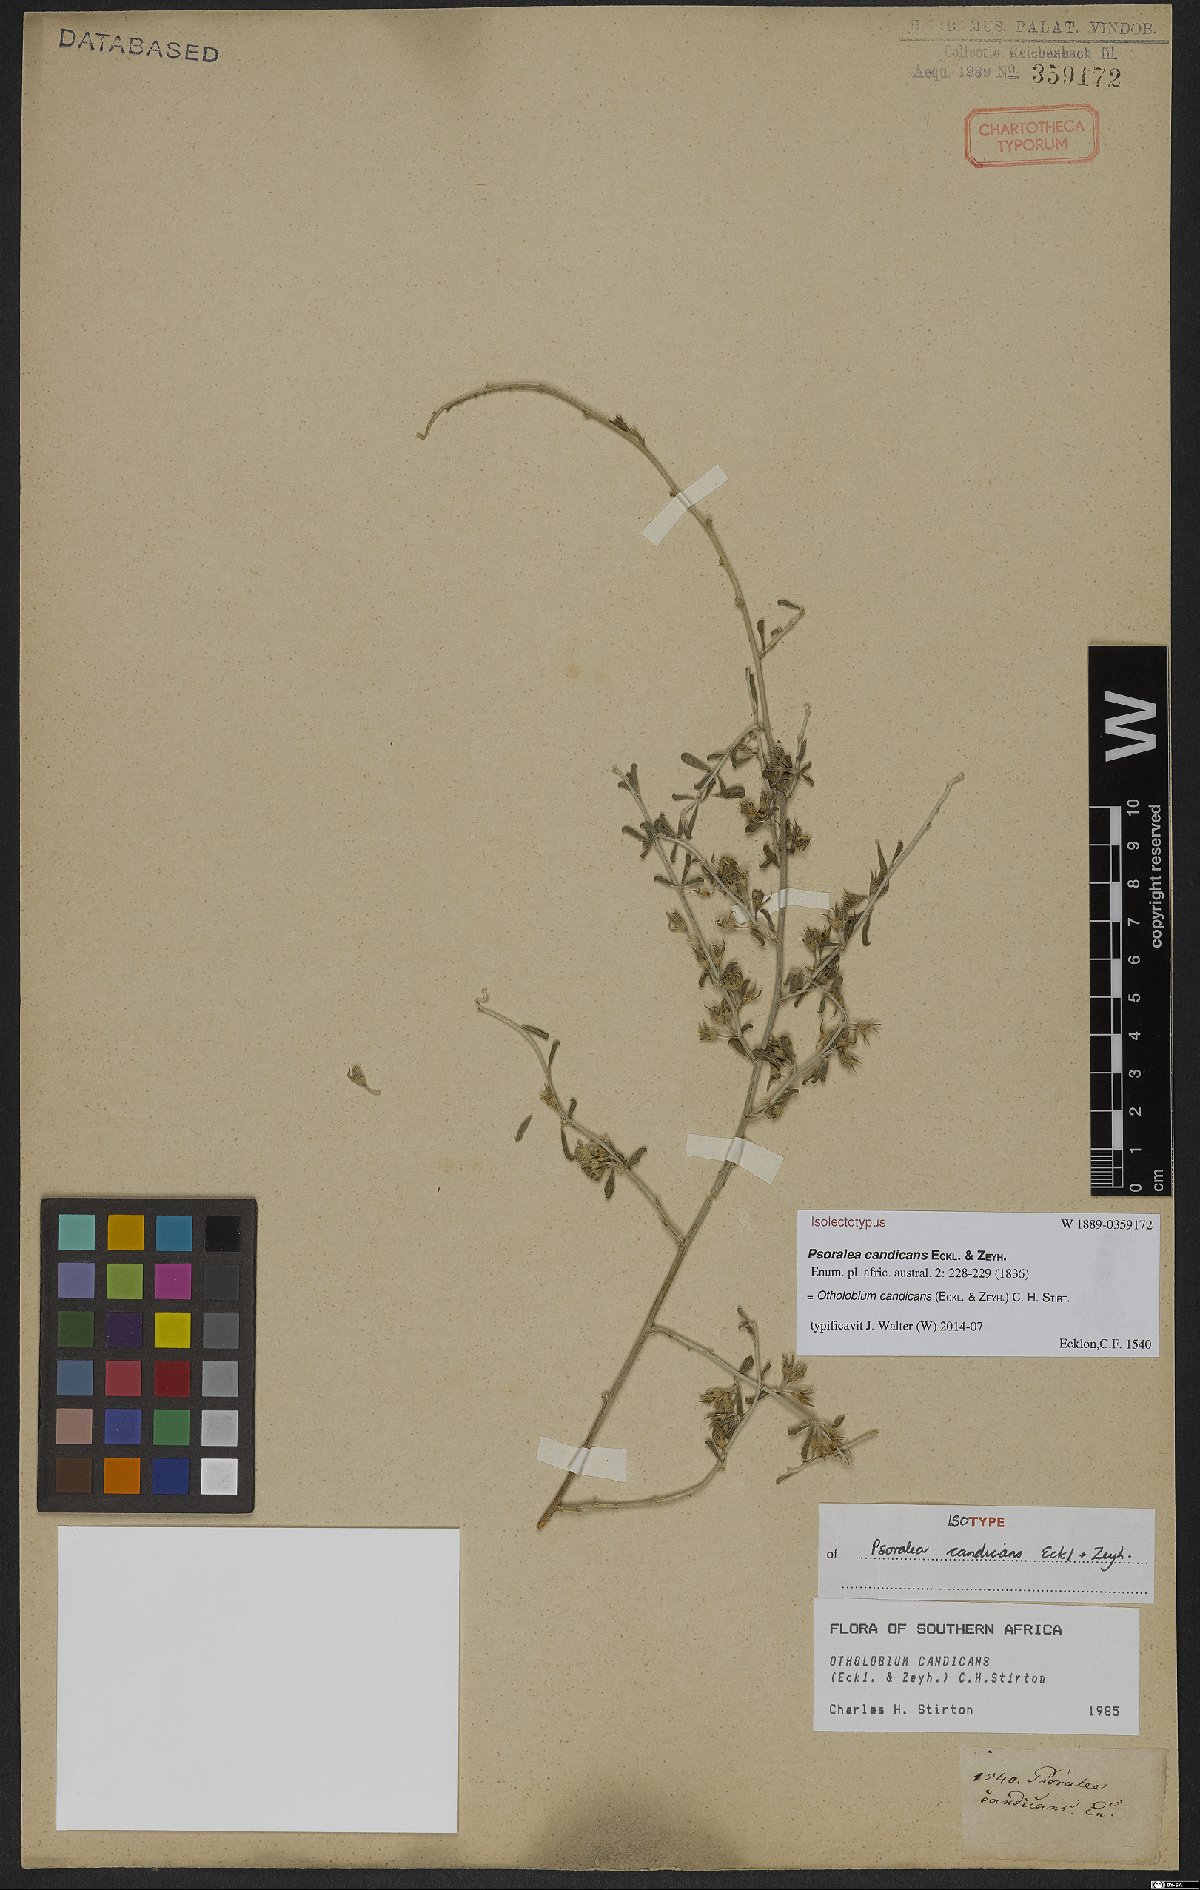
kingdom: Plantae
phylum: Tracheophyta
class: Magnoliopsida
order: Fabales
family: Fabaceae
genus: Psoralea
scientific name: Psoralea candicans
